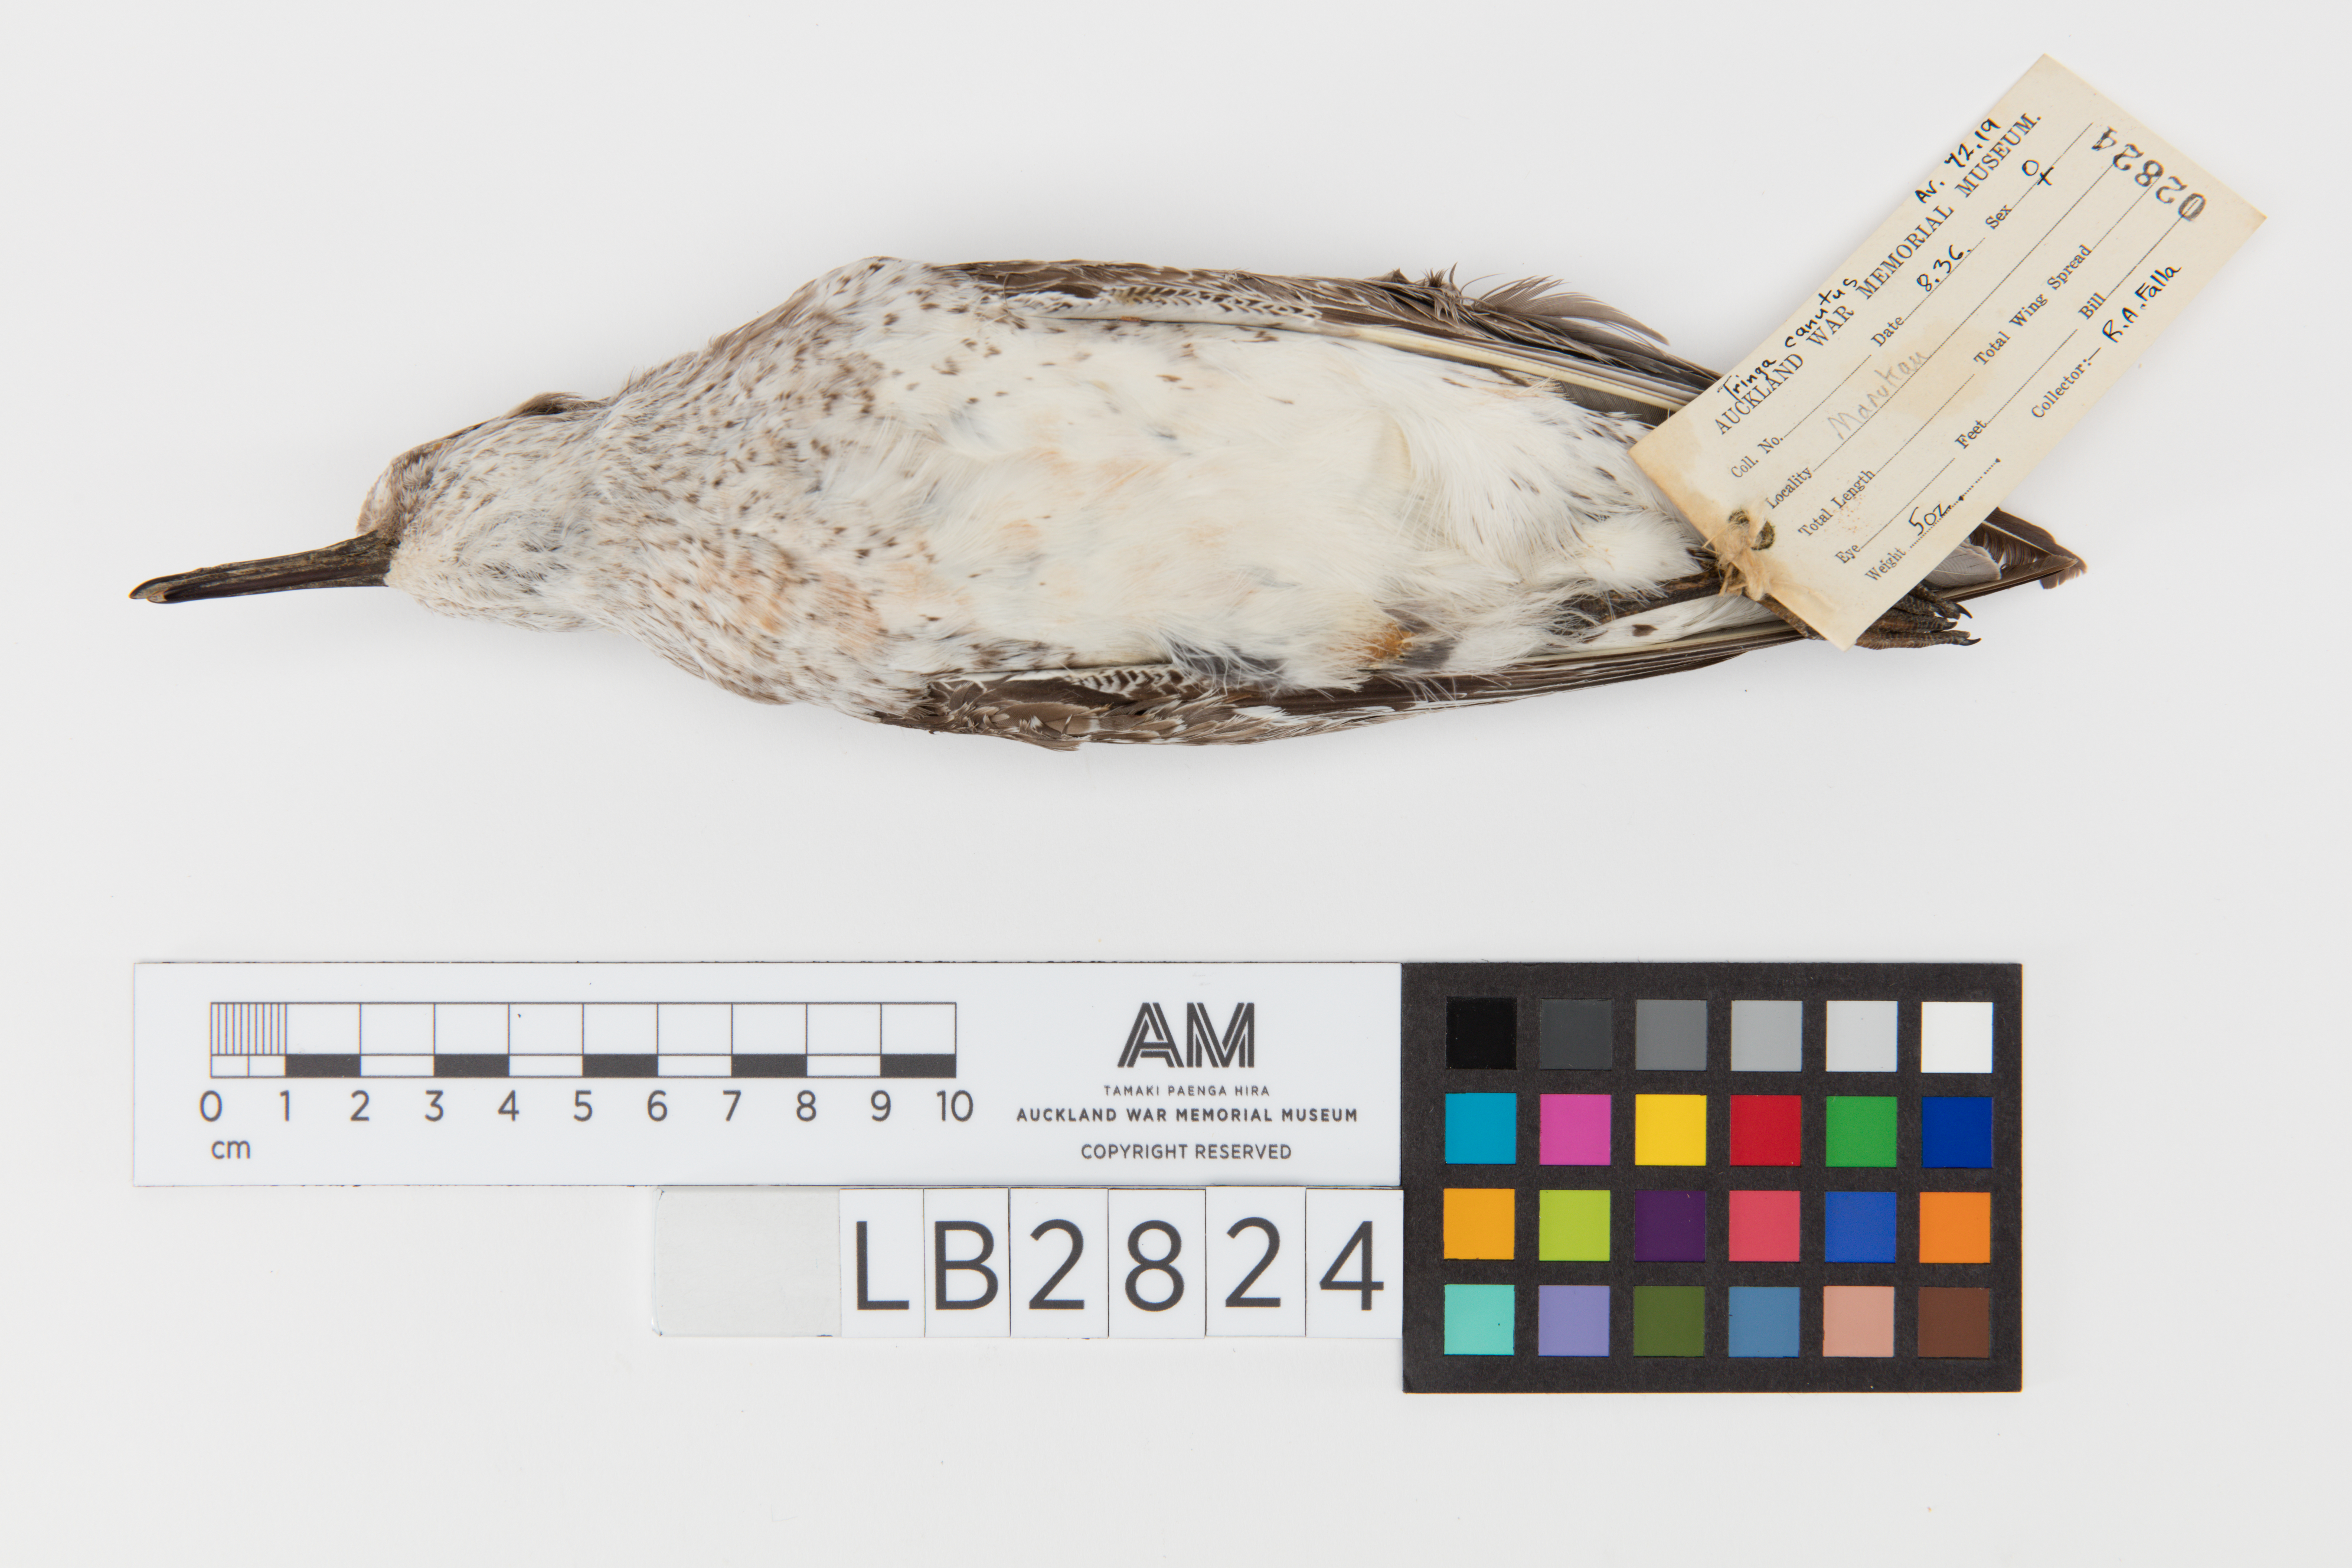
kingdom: Animalia
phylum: Chordata
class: Aves
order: Charadriiformes
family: Scolopacidae
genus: Calidris
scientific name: Calidris canutus
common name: Red knot
